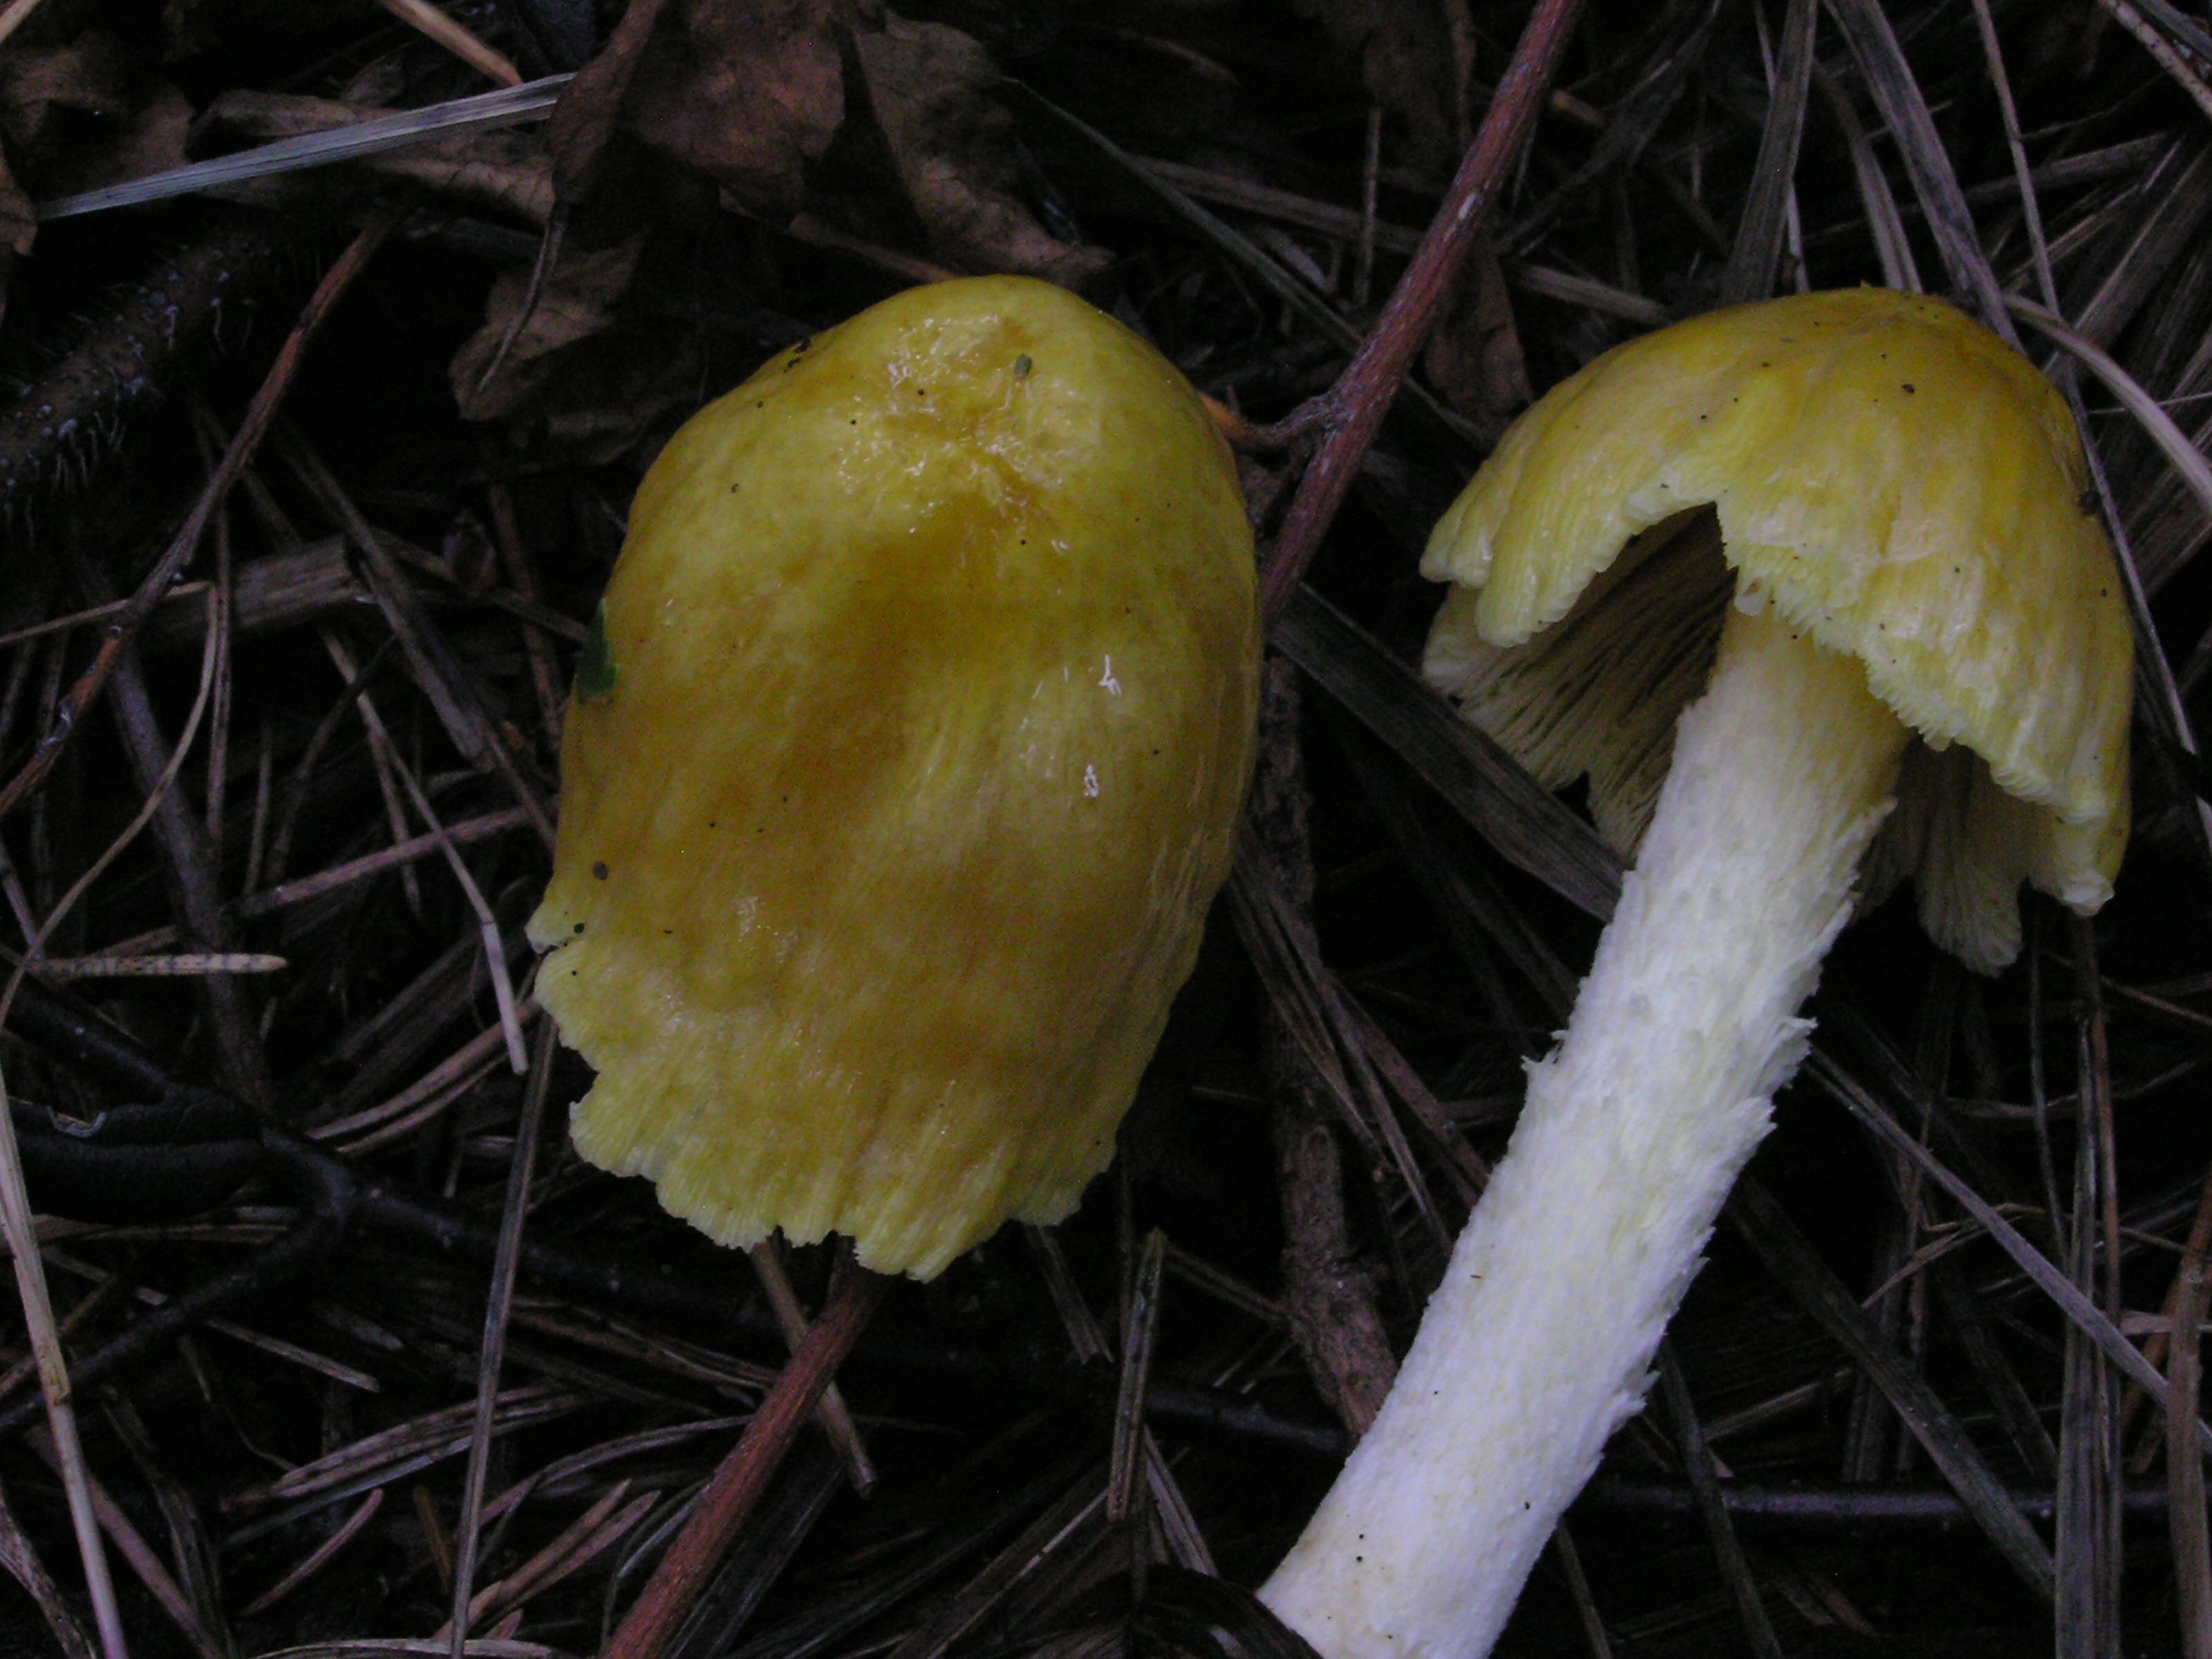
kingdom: Fungi
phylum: Basidiomycota
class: Agaricomycetes
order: Agaricales
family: Bolbitiaceae
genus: Bolbitius
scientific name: Bolbitius titubans
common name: Yellow fieldcap
